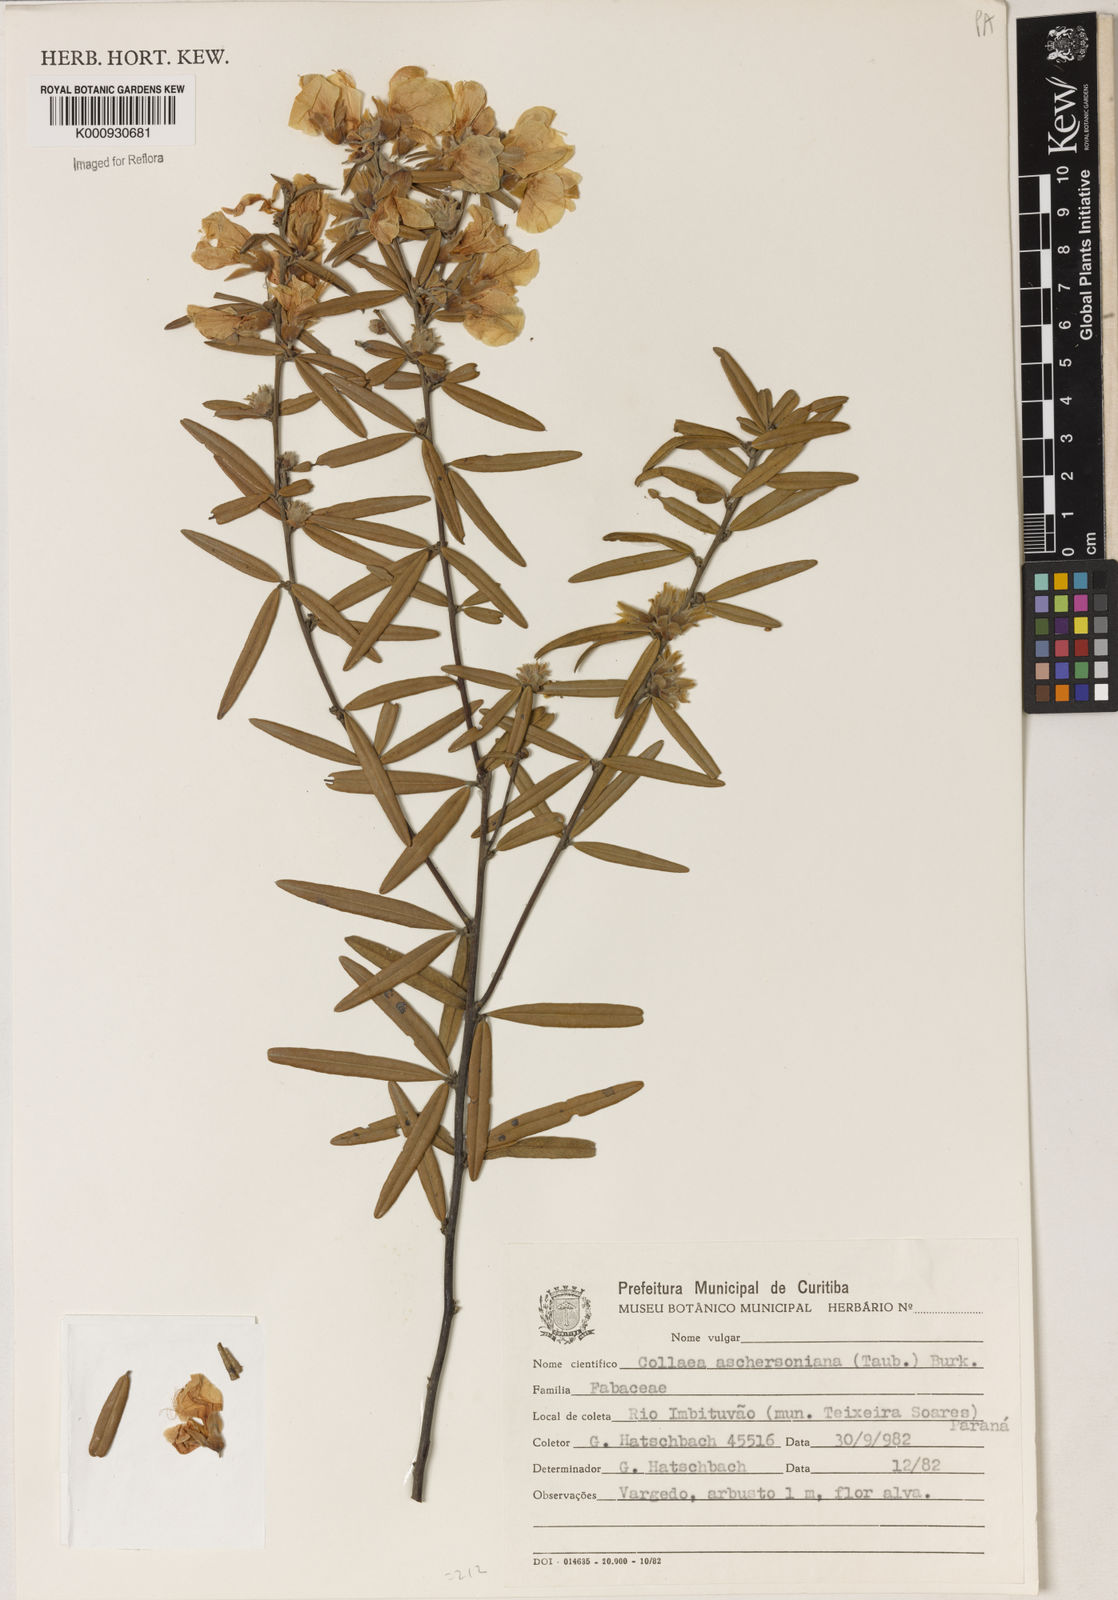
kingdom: Plantae
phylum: Tracheophyta
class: Liliopsida
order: Asparagales
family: Orchidaceae
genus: Pelexia
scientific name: Pelexia
